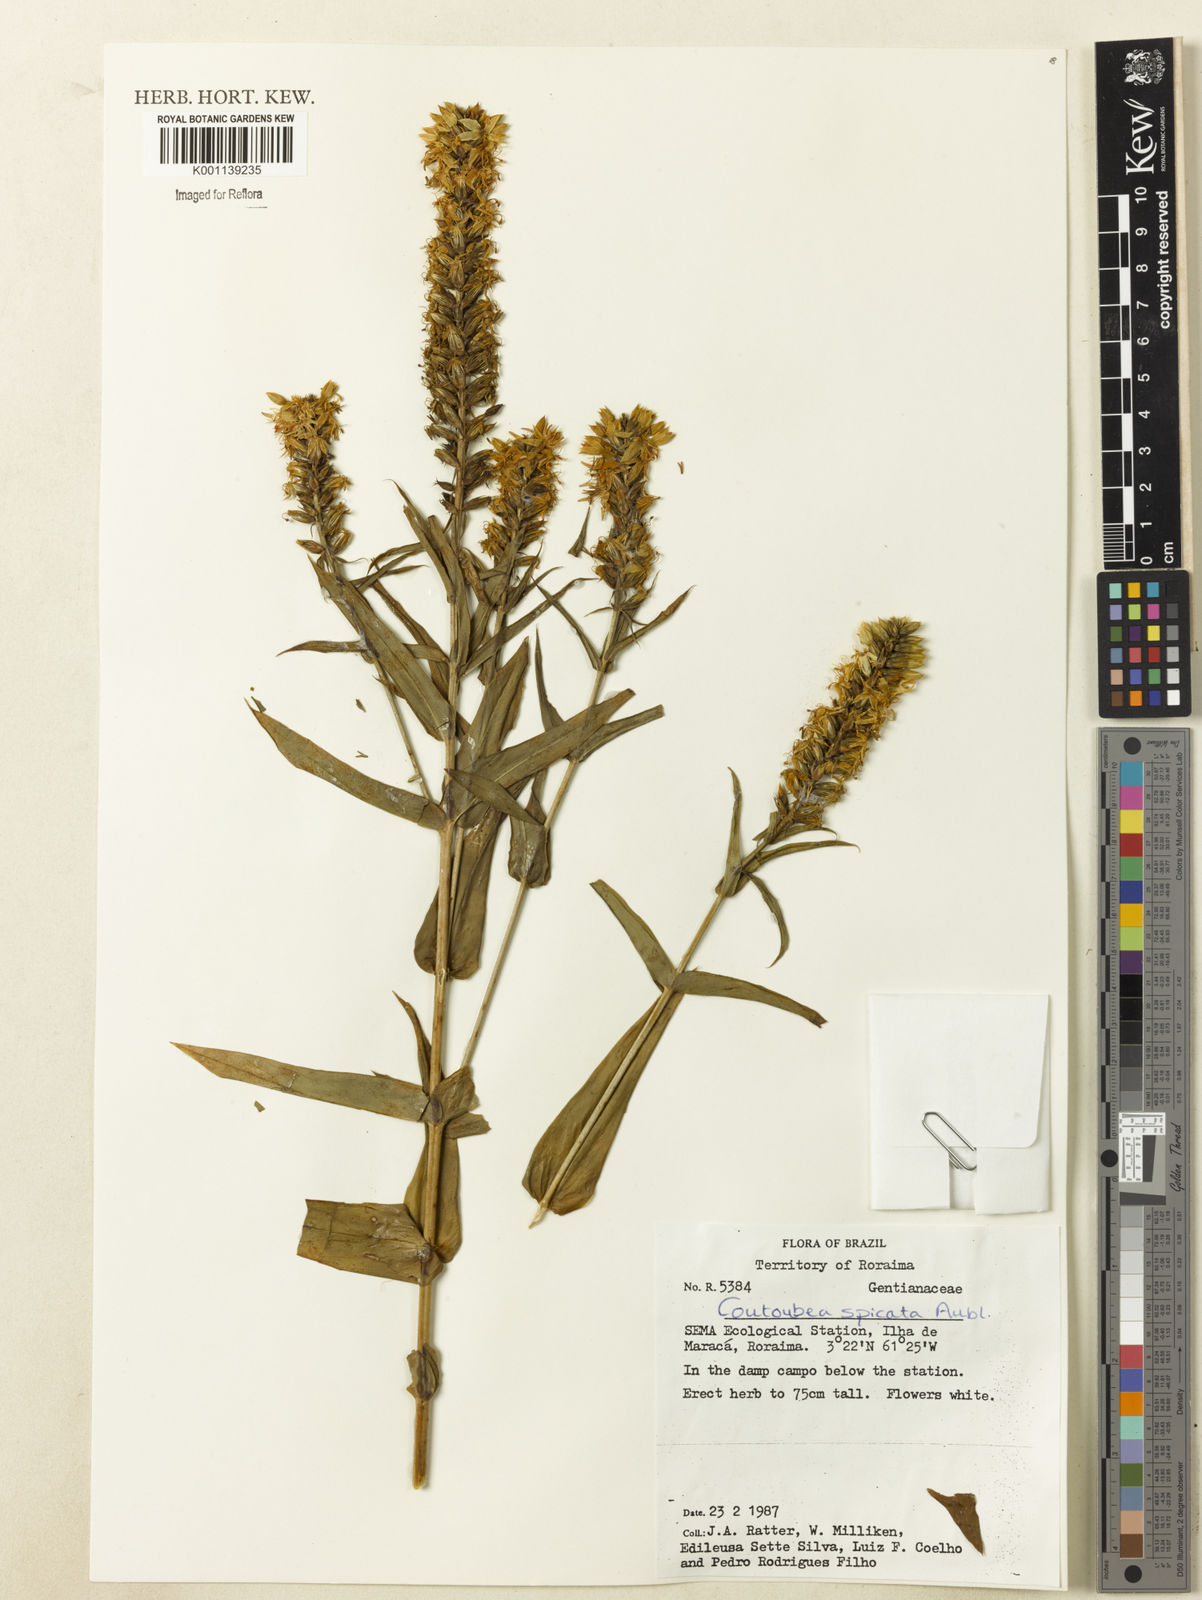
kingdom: Plantae
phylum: Tracheophyta
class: Magnoliopsida
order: Gentianales
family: Gentianaceae
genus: Coutoubea
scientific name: Coutoubea spicata
